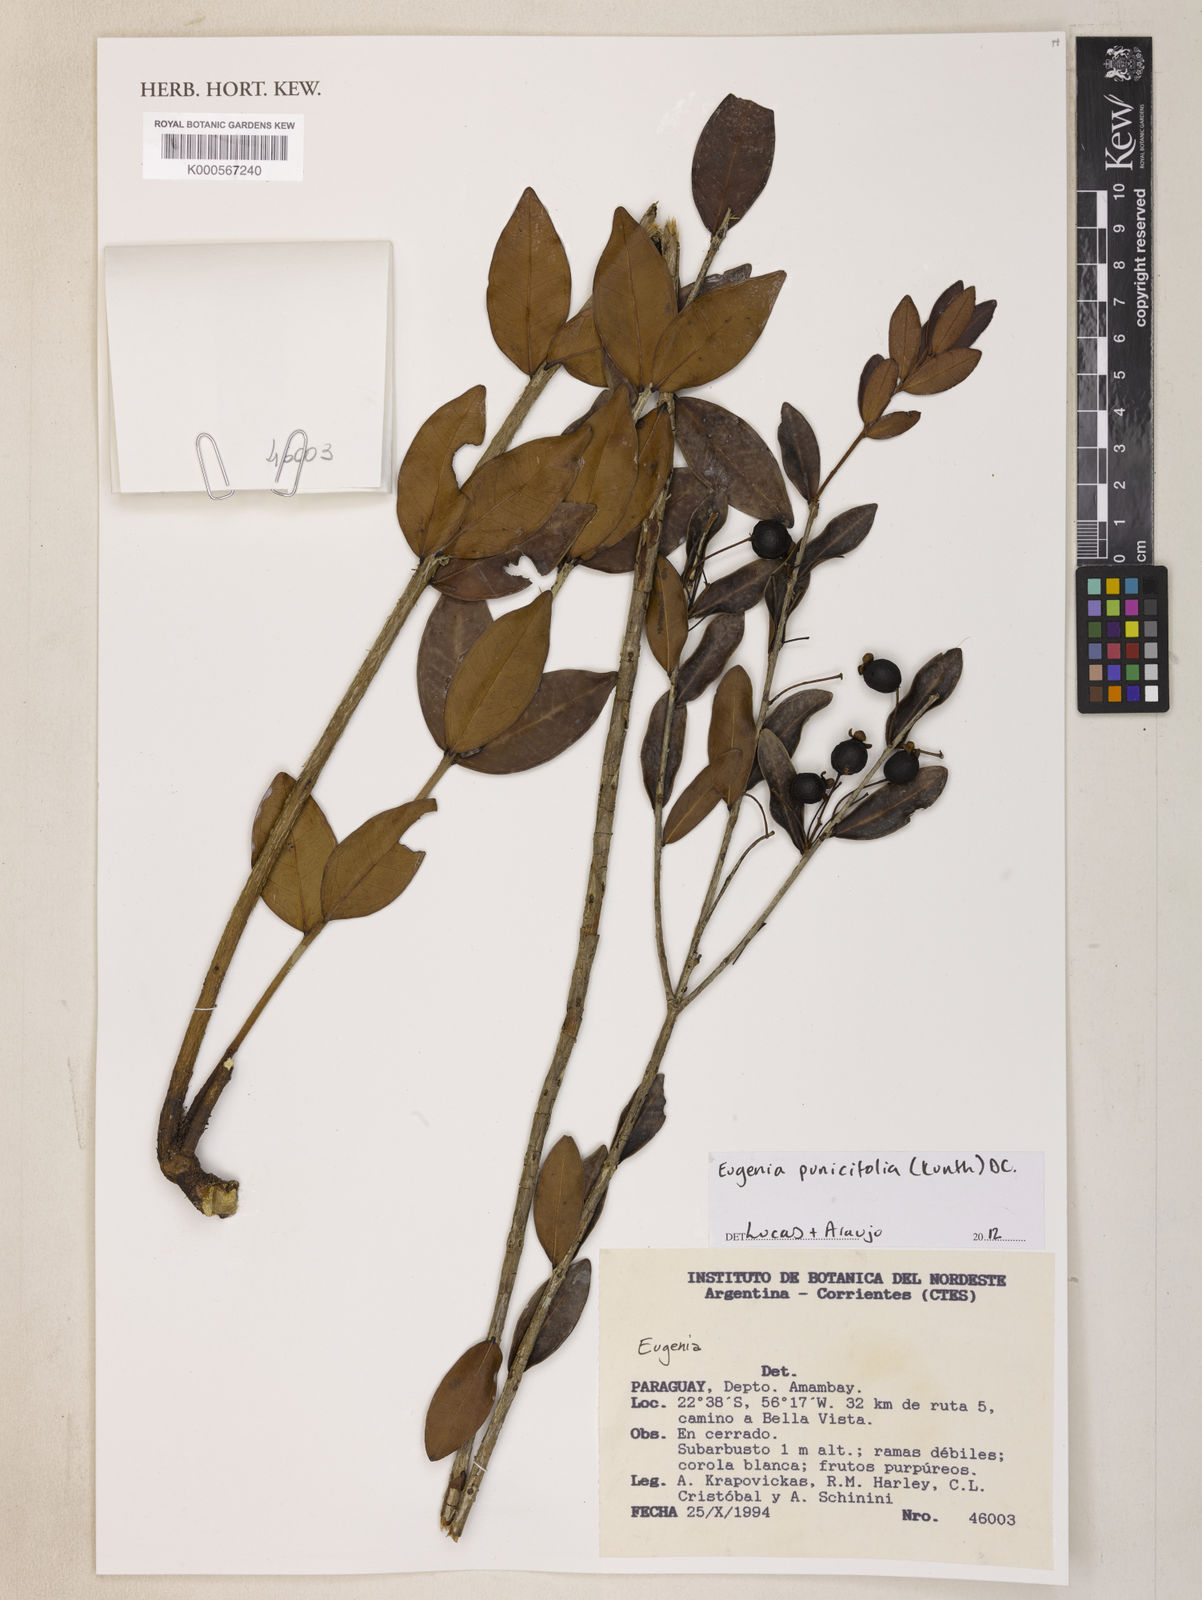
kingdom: Plantae
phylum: Tracheophyta
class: Magnoliopsida
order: Myrtales
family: Myrtaceae
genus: Eugenia
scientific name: Eugenia punicifolia
